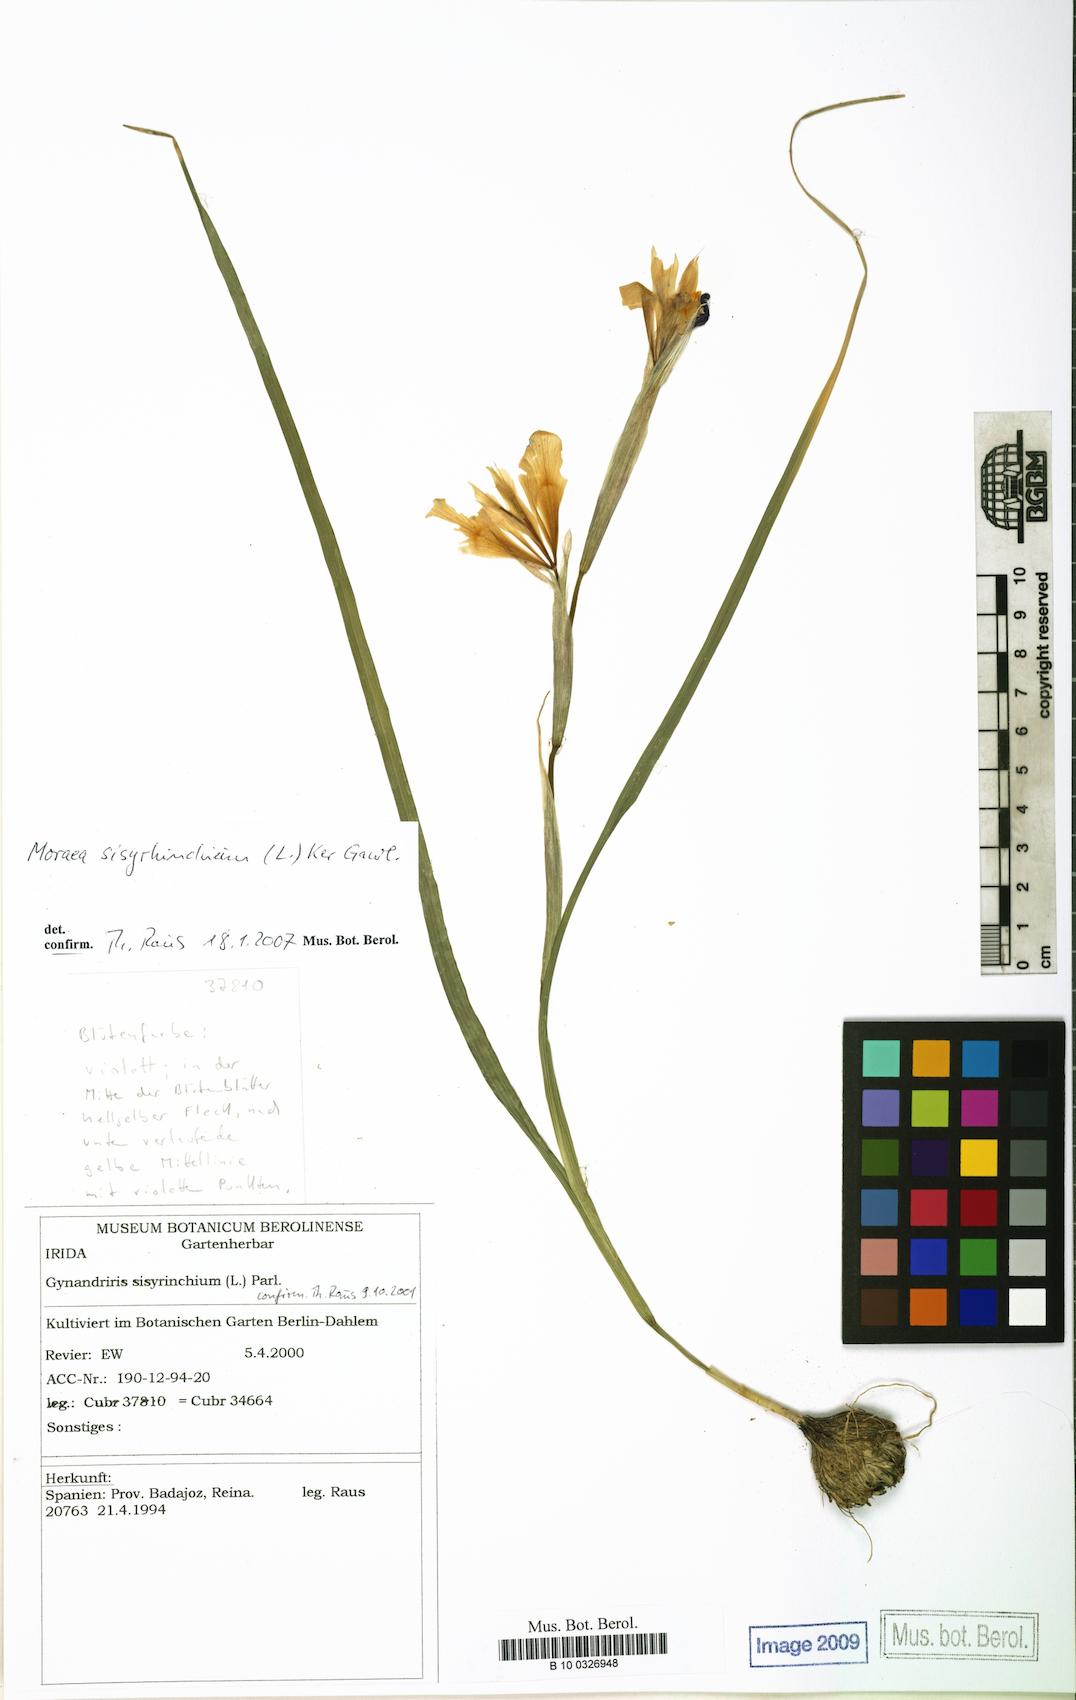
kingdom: Plantae
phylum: Tracheophyta
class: Liliopsida
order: Asparagales
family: Iridaceae
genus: Moraea
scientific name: Moraea sisyrinchium
